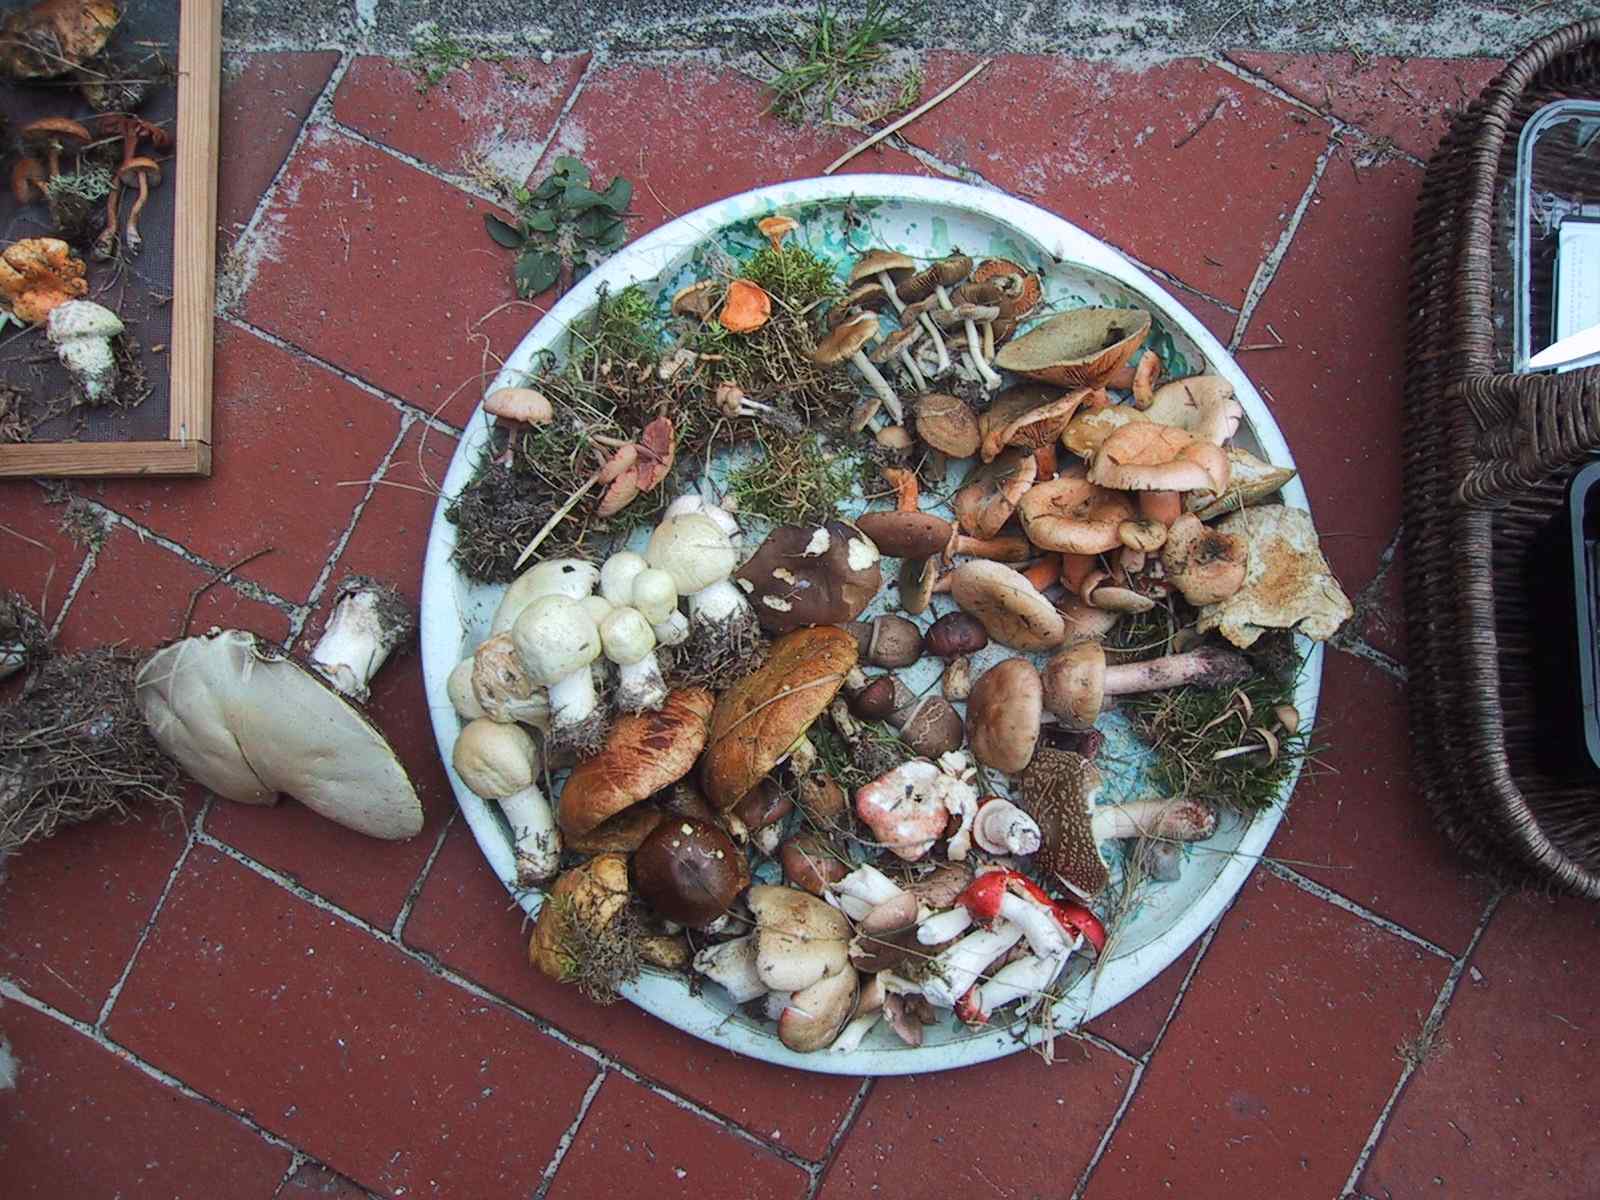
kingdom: Fungi
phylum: Basidiomycota
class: Agaricomycetes
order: Russulales
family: Russulaceae
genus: Lactarius
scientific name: Lactarius deterrimus
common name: gran-mælkehat
